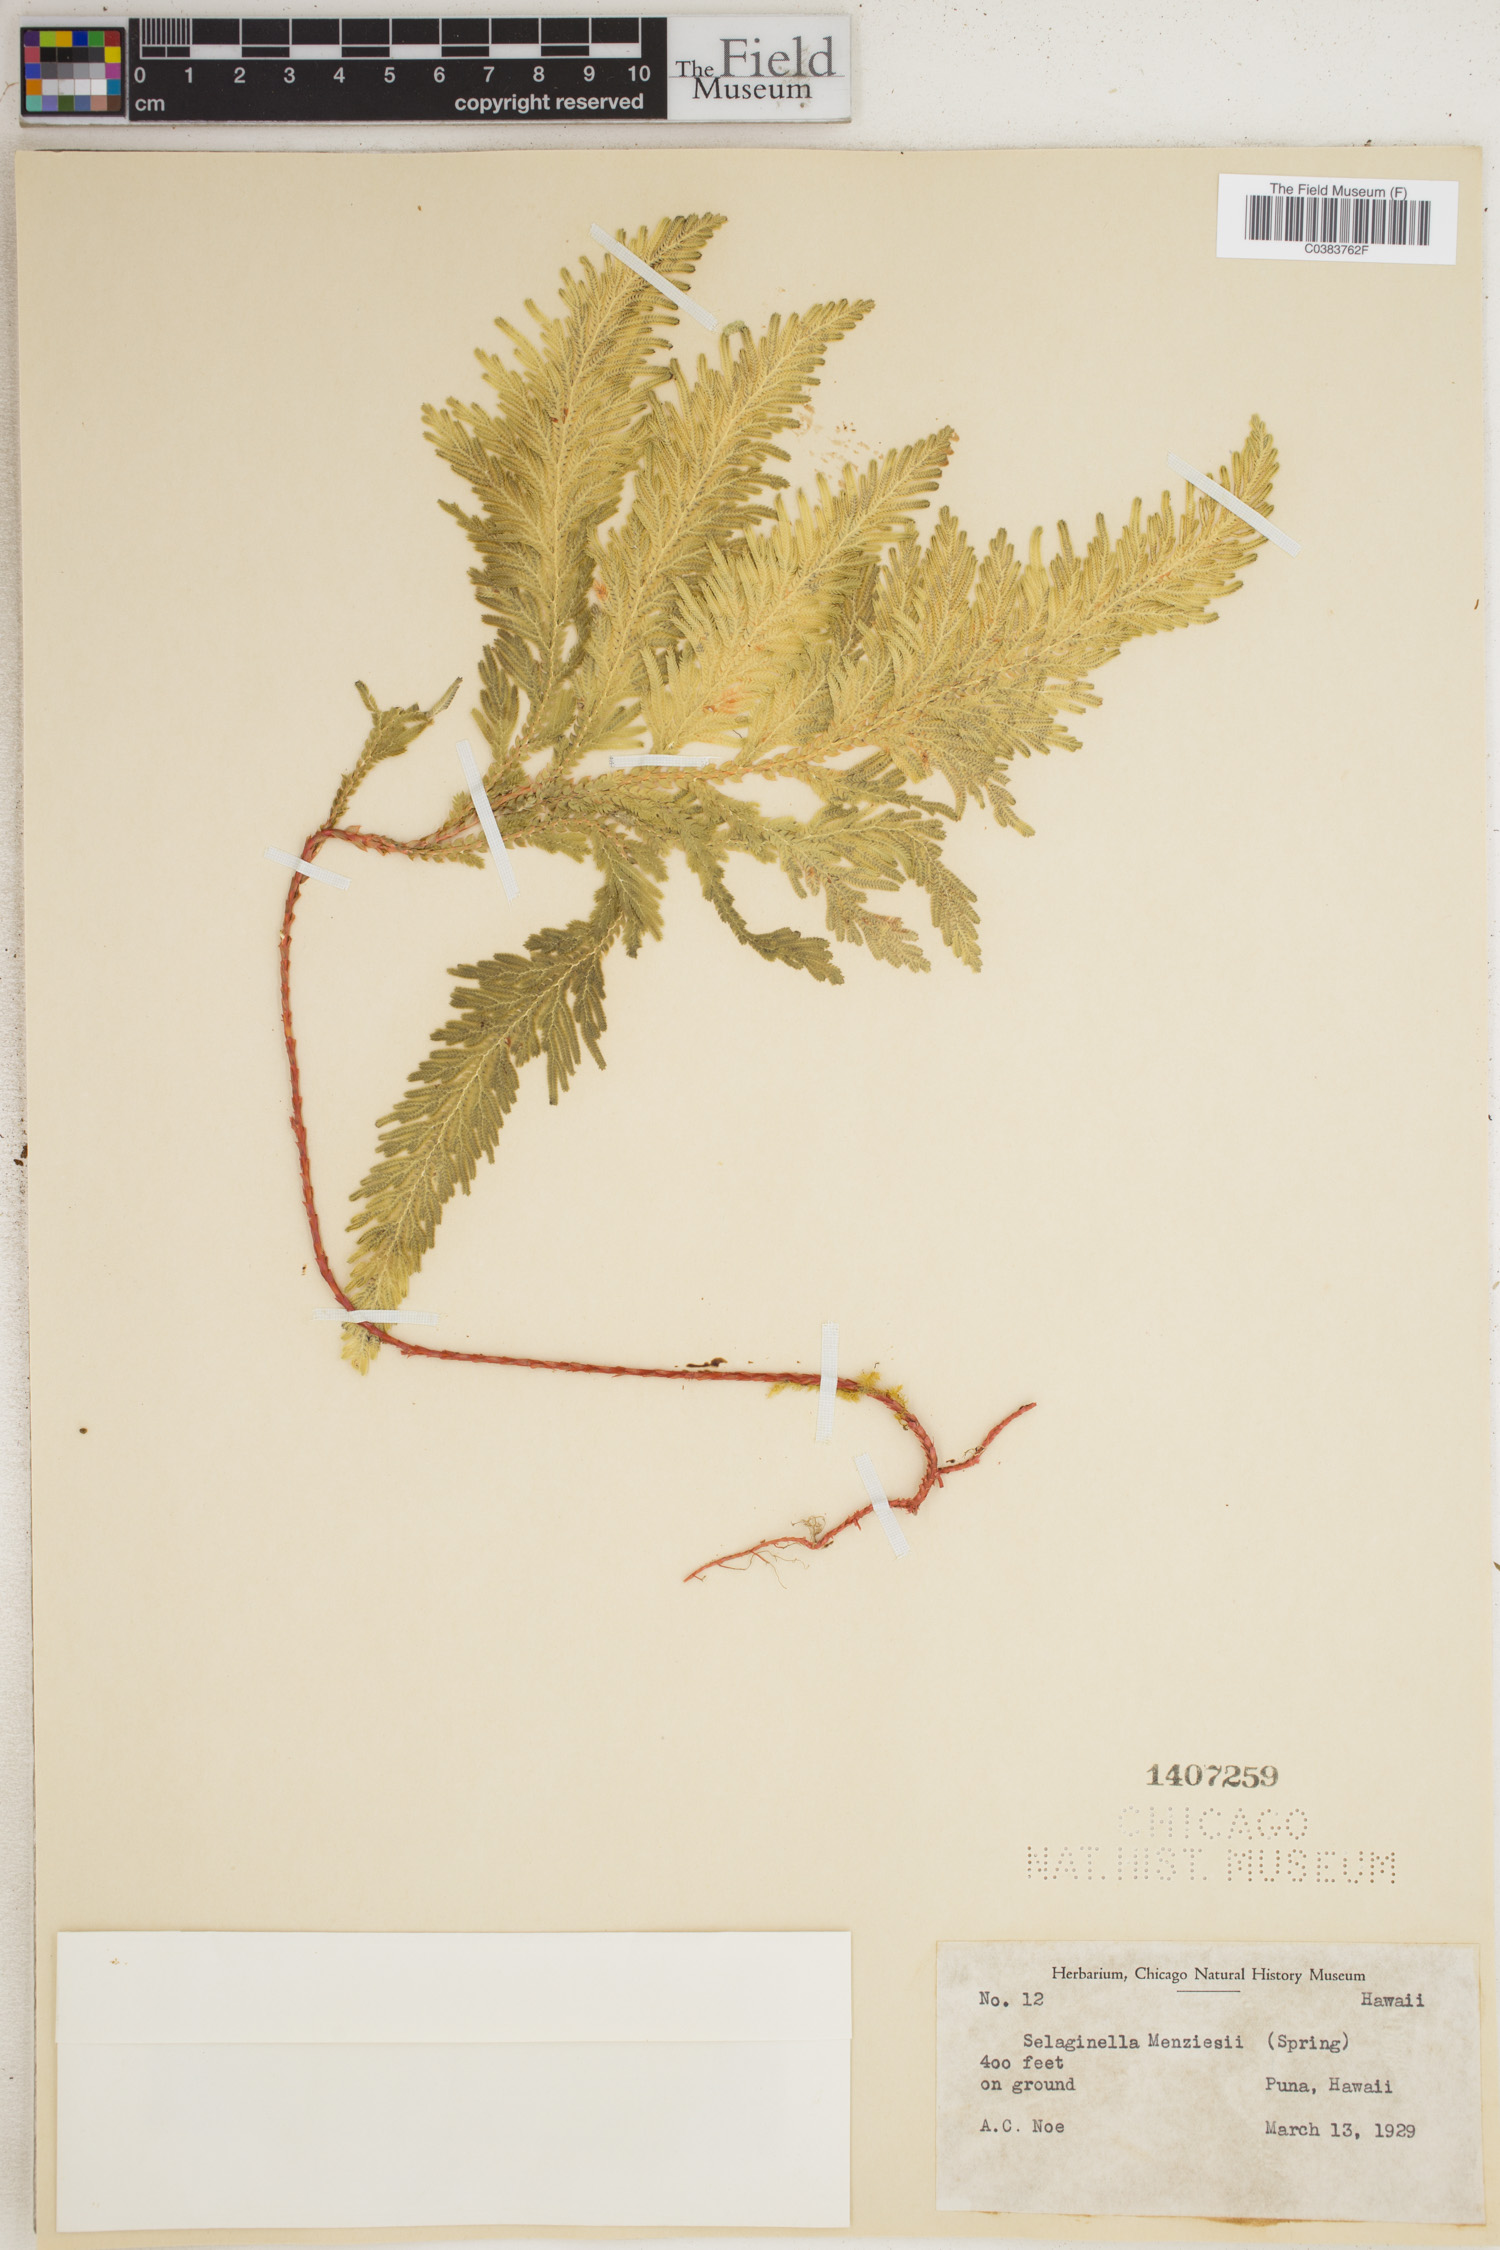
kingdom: Plantae
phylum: Tracheophyta
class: Lycopodiopsida
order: Selaginellales
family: Selaginellaceae
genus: Selaginella
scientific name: Selaginella menziesii
